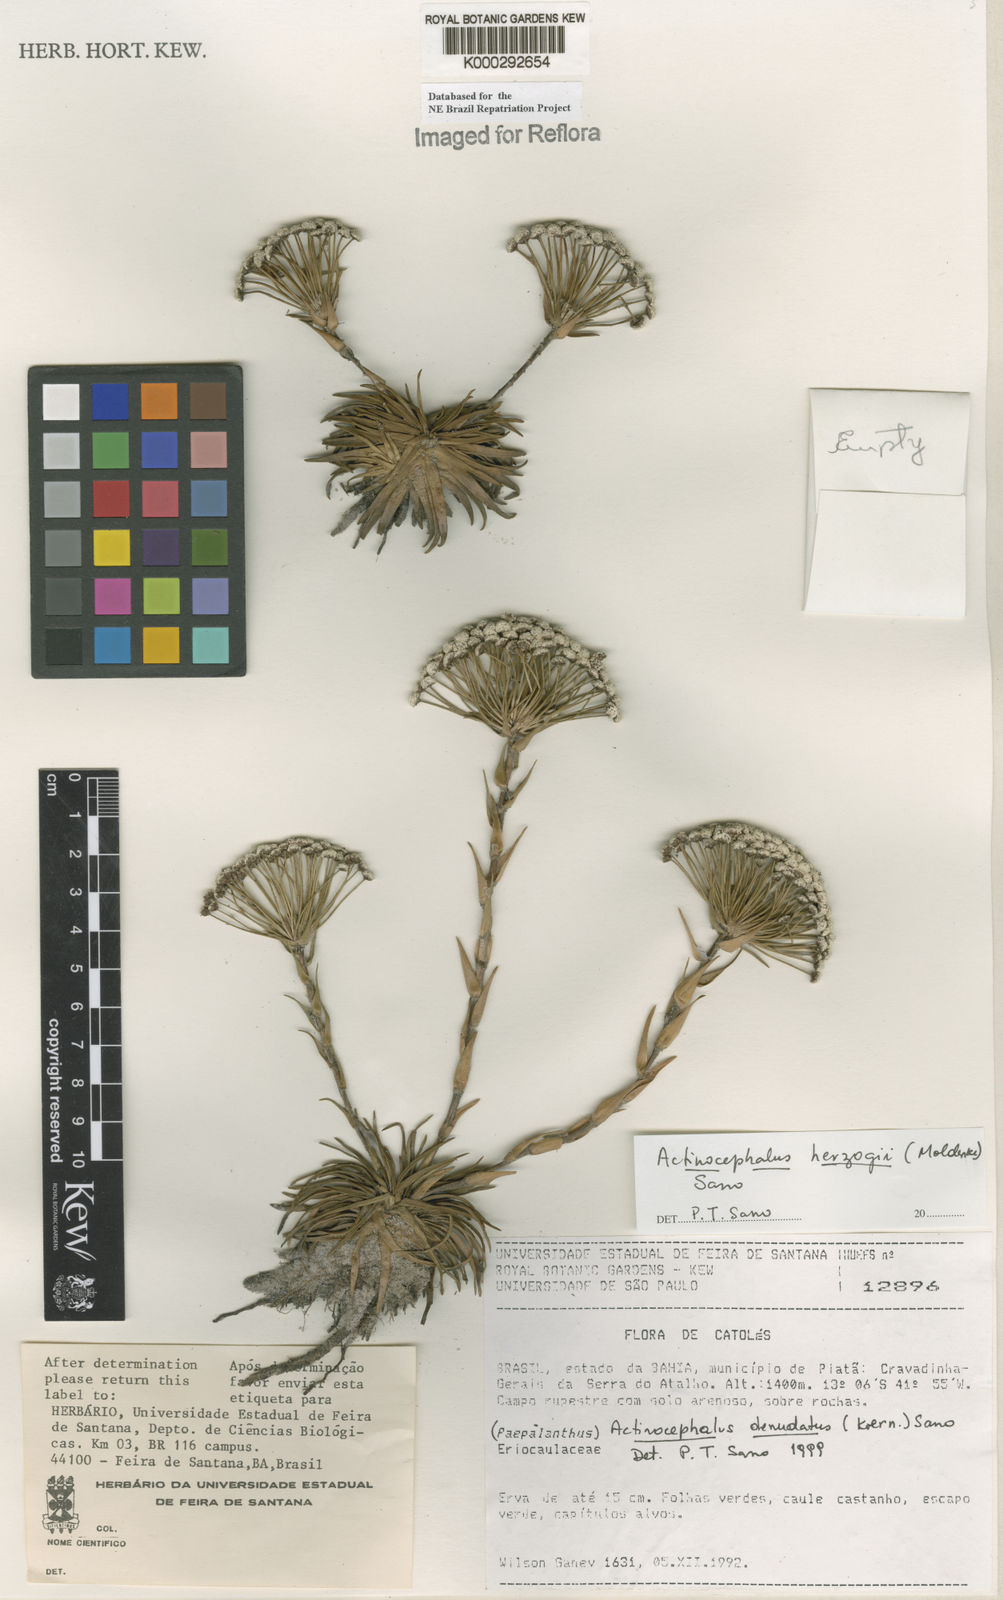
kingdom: Plantae
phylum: Tracheophyta
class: Liliopsida
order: Poales
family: Eriocaulaceae
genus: Paepalanthus
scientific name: Paepalanthus herzogii
